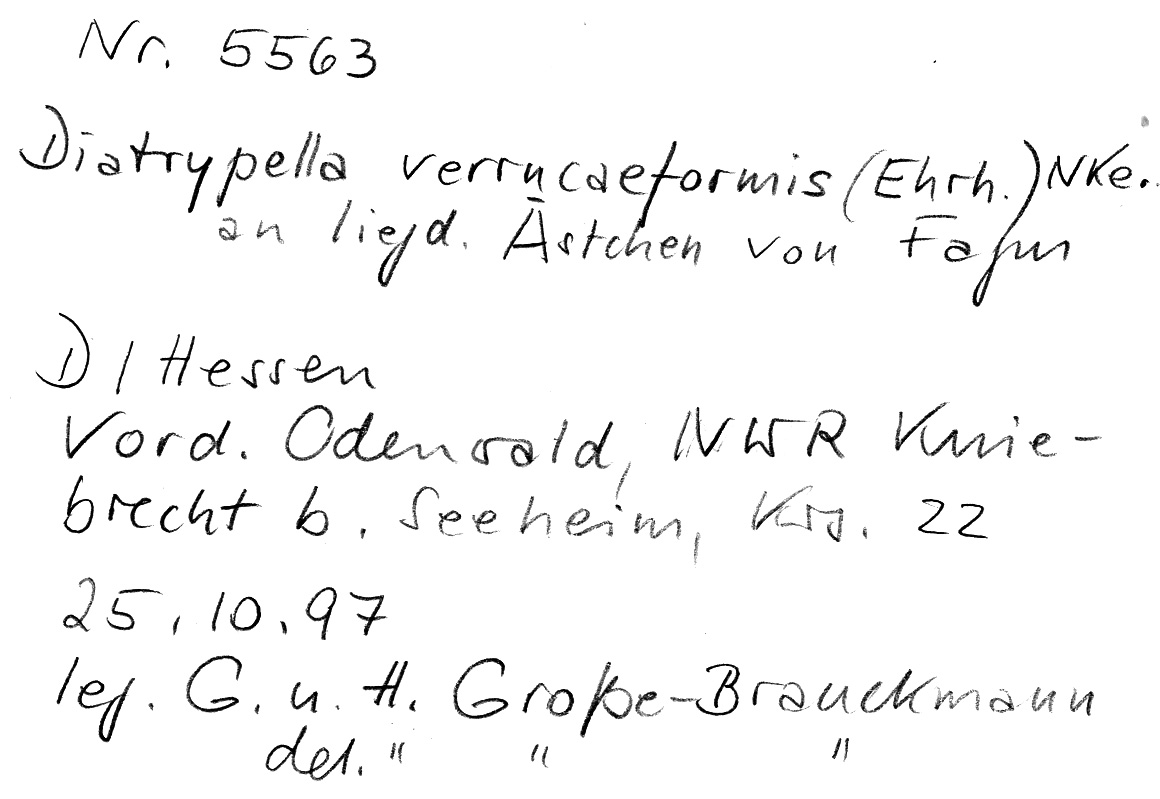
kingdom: Fungi
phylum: Ascomycota
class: Sordariomycetes
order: Xylariales
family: Diatrypaceae
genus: Diatrypella
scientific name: Diatrypella favacea
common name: Birch blackhead
